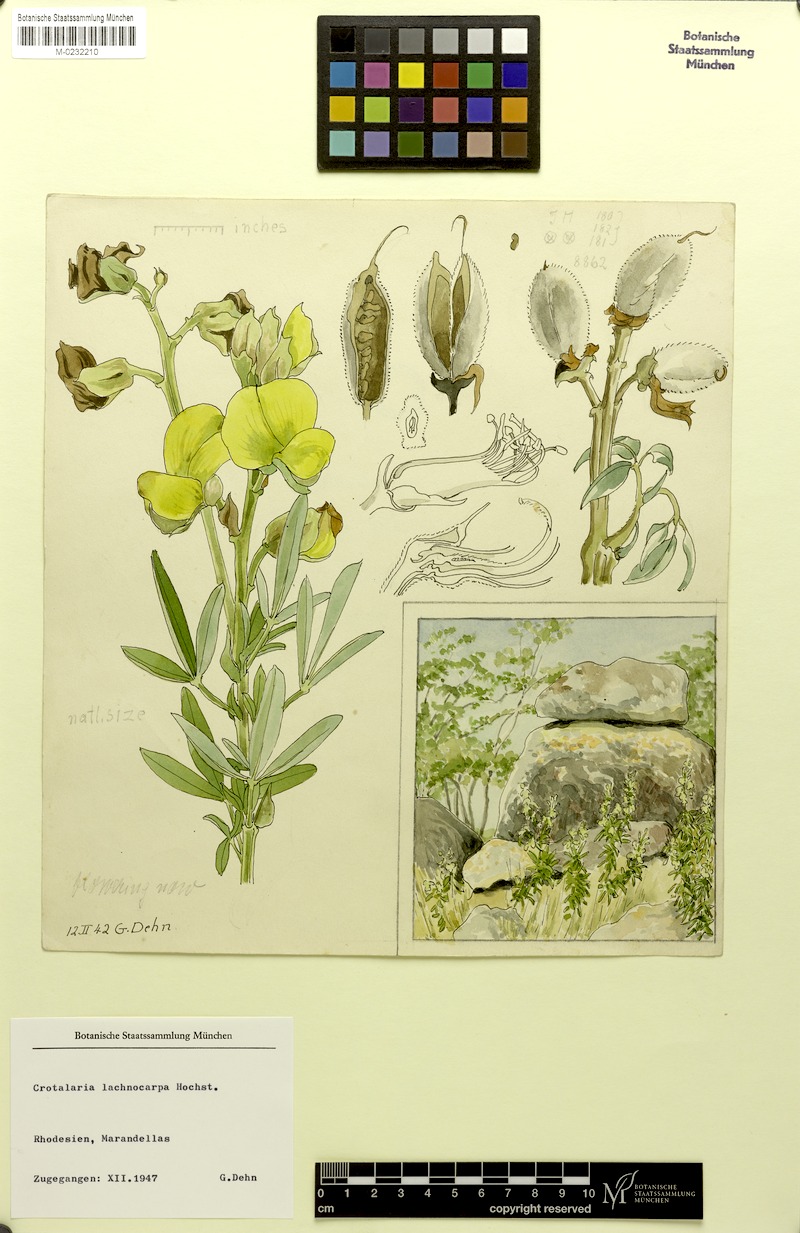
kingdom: Plantae
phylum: Tracheophyta
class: Magnoliopsida
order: Fabales
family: Fabaceae
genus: Crotalaria
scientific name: Crotalaria lachnophora
